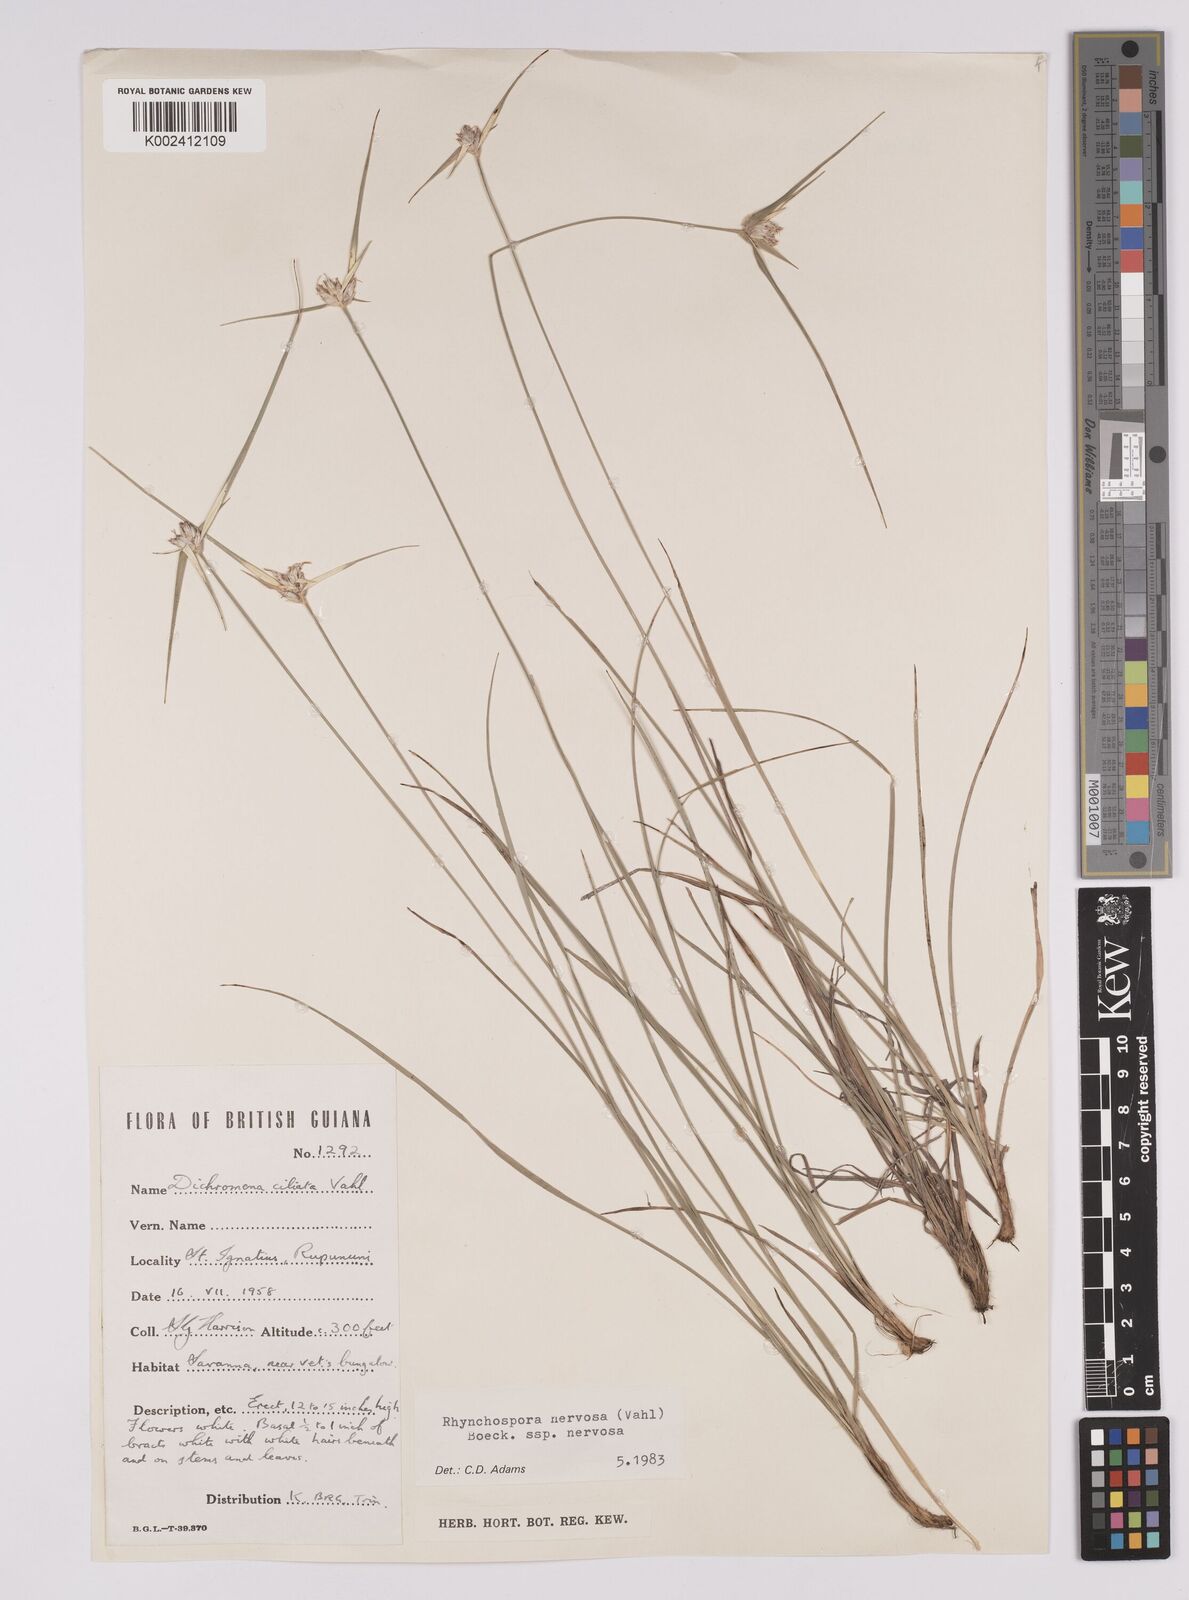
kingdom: Plantae
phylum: Tracheophyta
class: Liliopsida
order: Poales
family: Cyperaceae
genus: Rhynchospora
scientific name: Rhynchospora nervosa
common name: Star sedge
